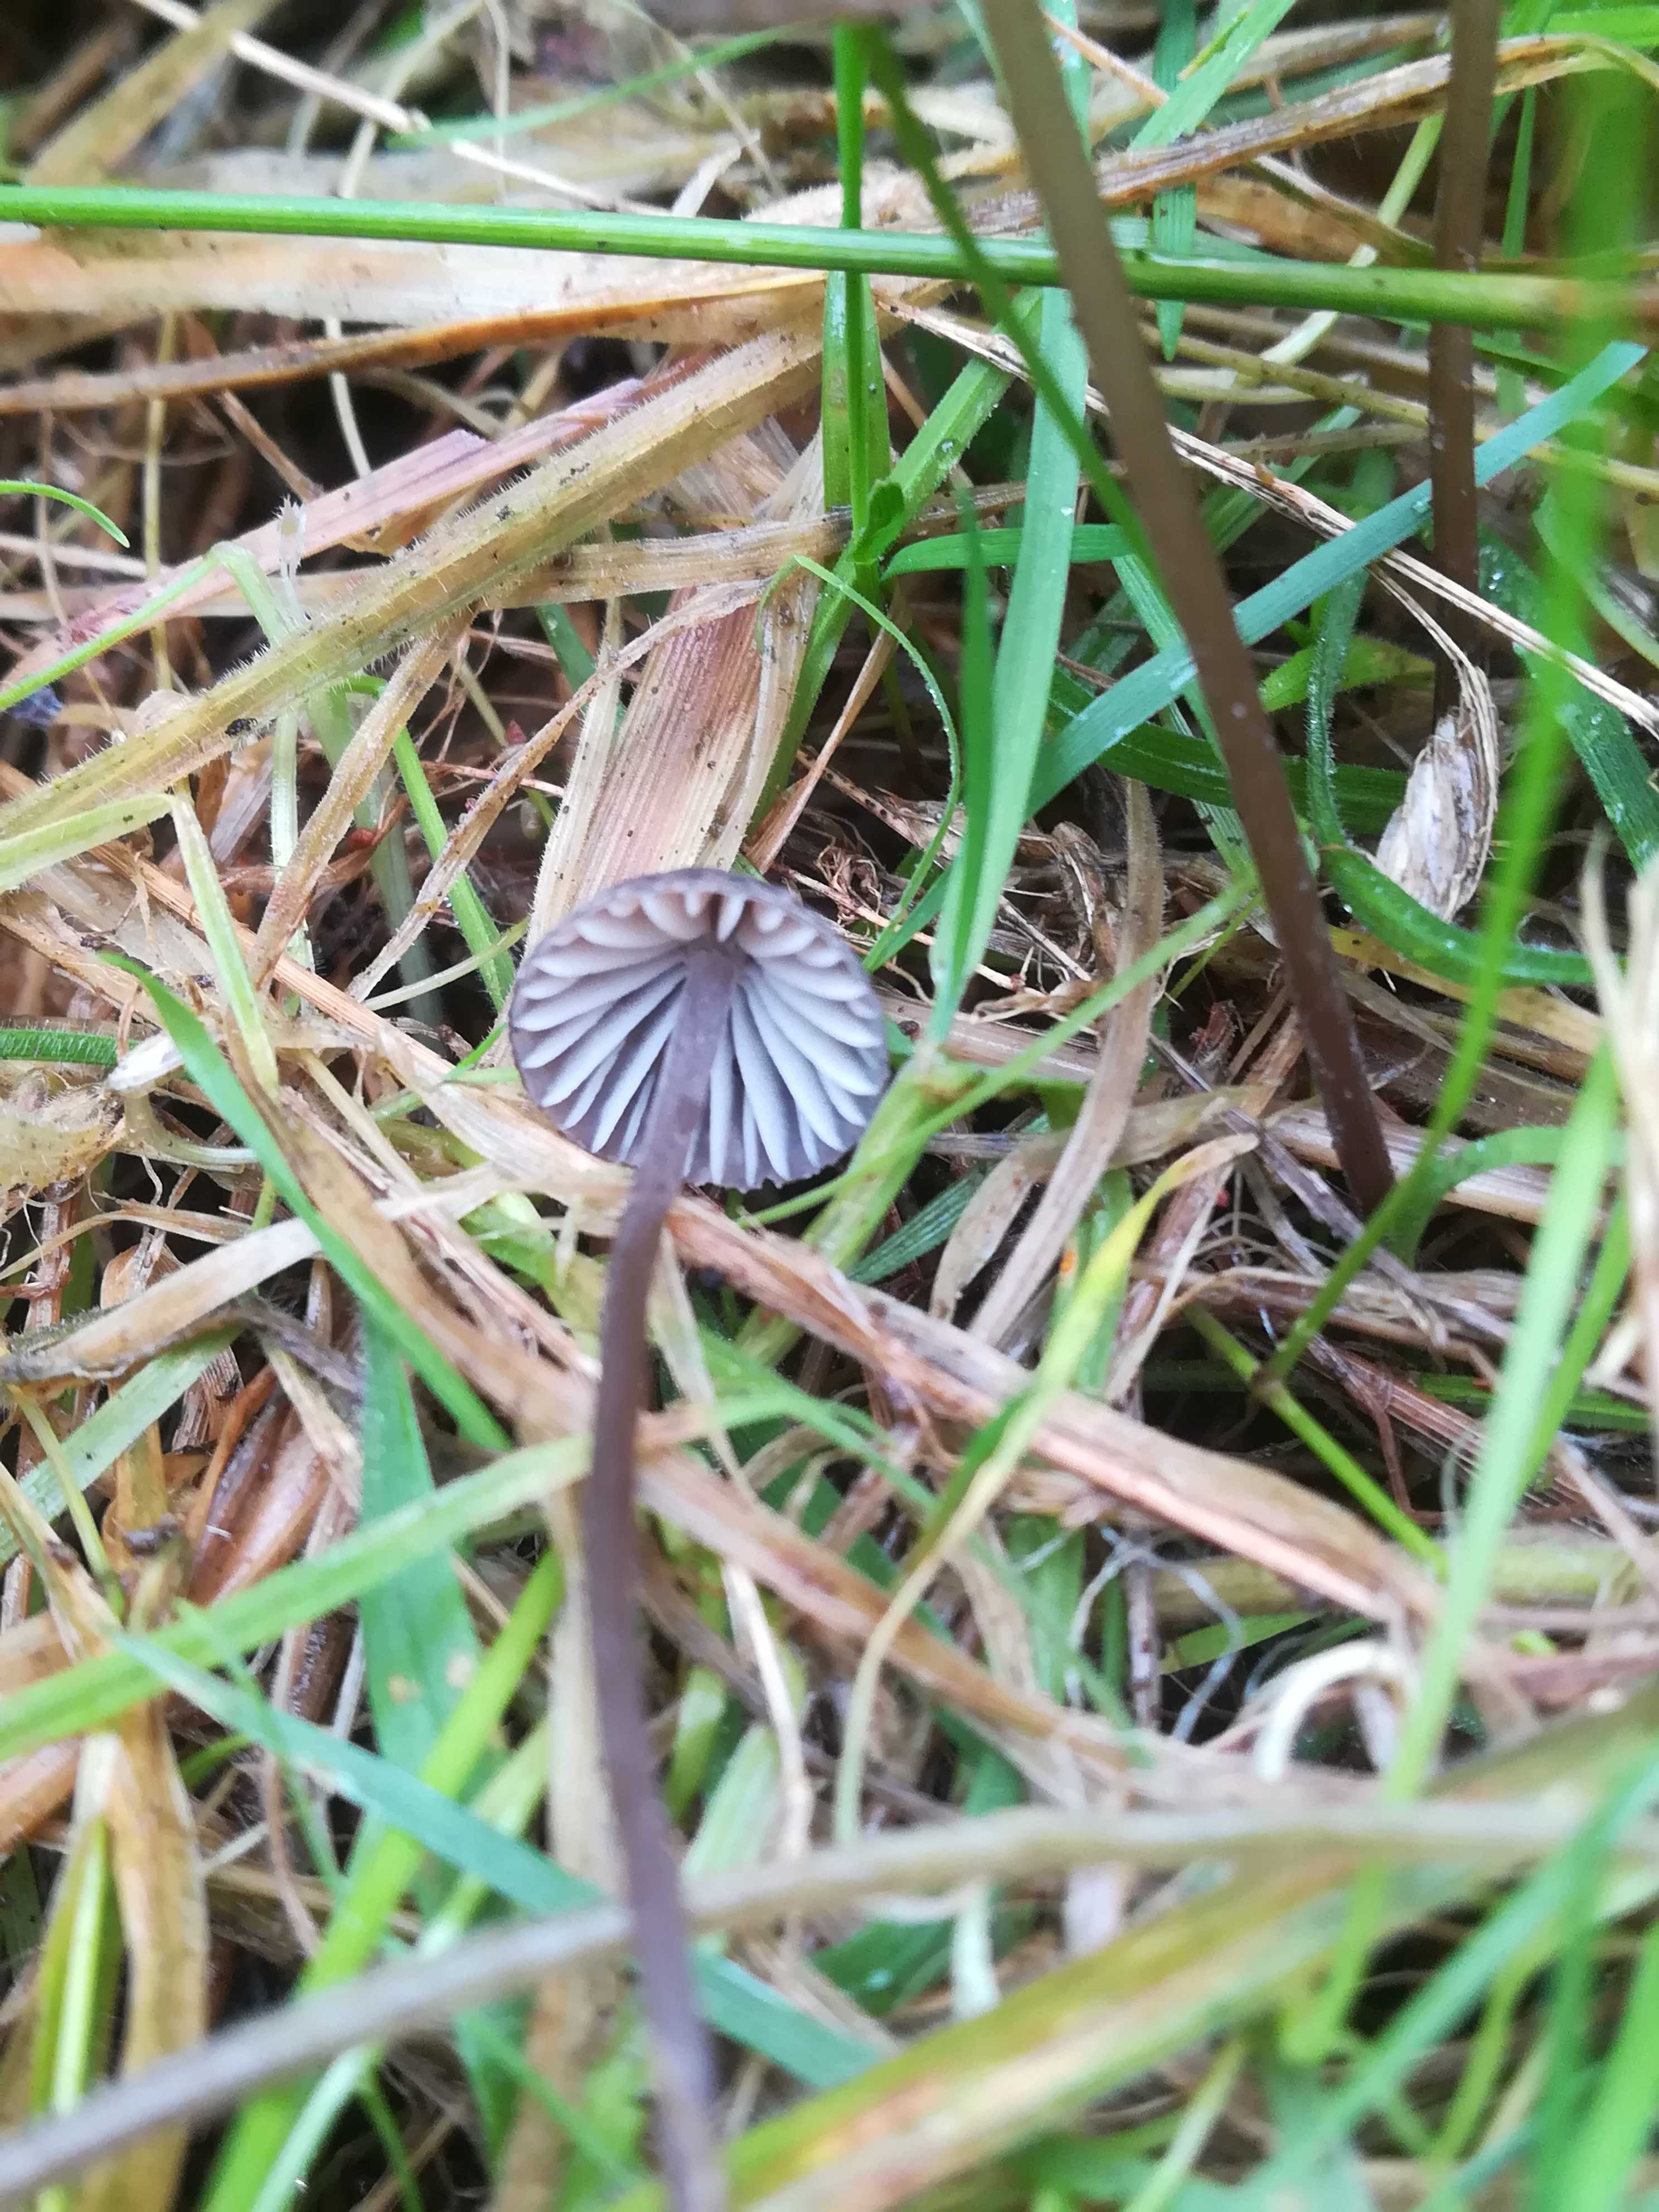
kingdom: Fungi
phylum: Basidiomycota
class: Agaricomycetes
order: Agaricales
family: Mycenaceae
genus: Mycena
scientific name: Mycena
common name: huesvamp
